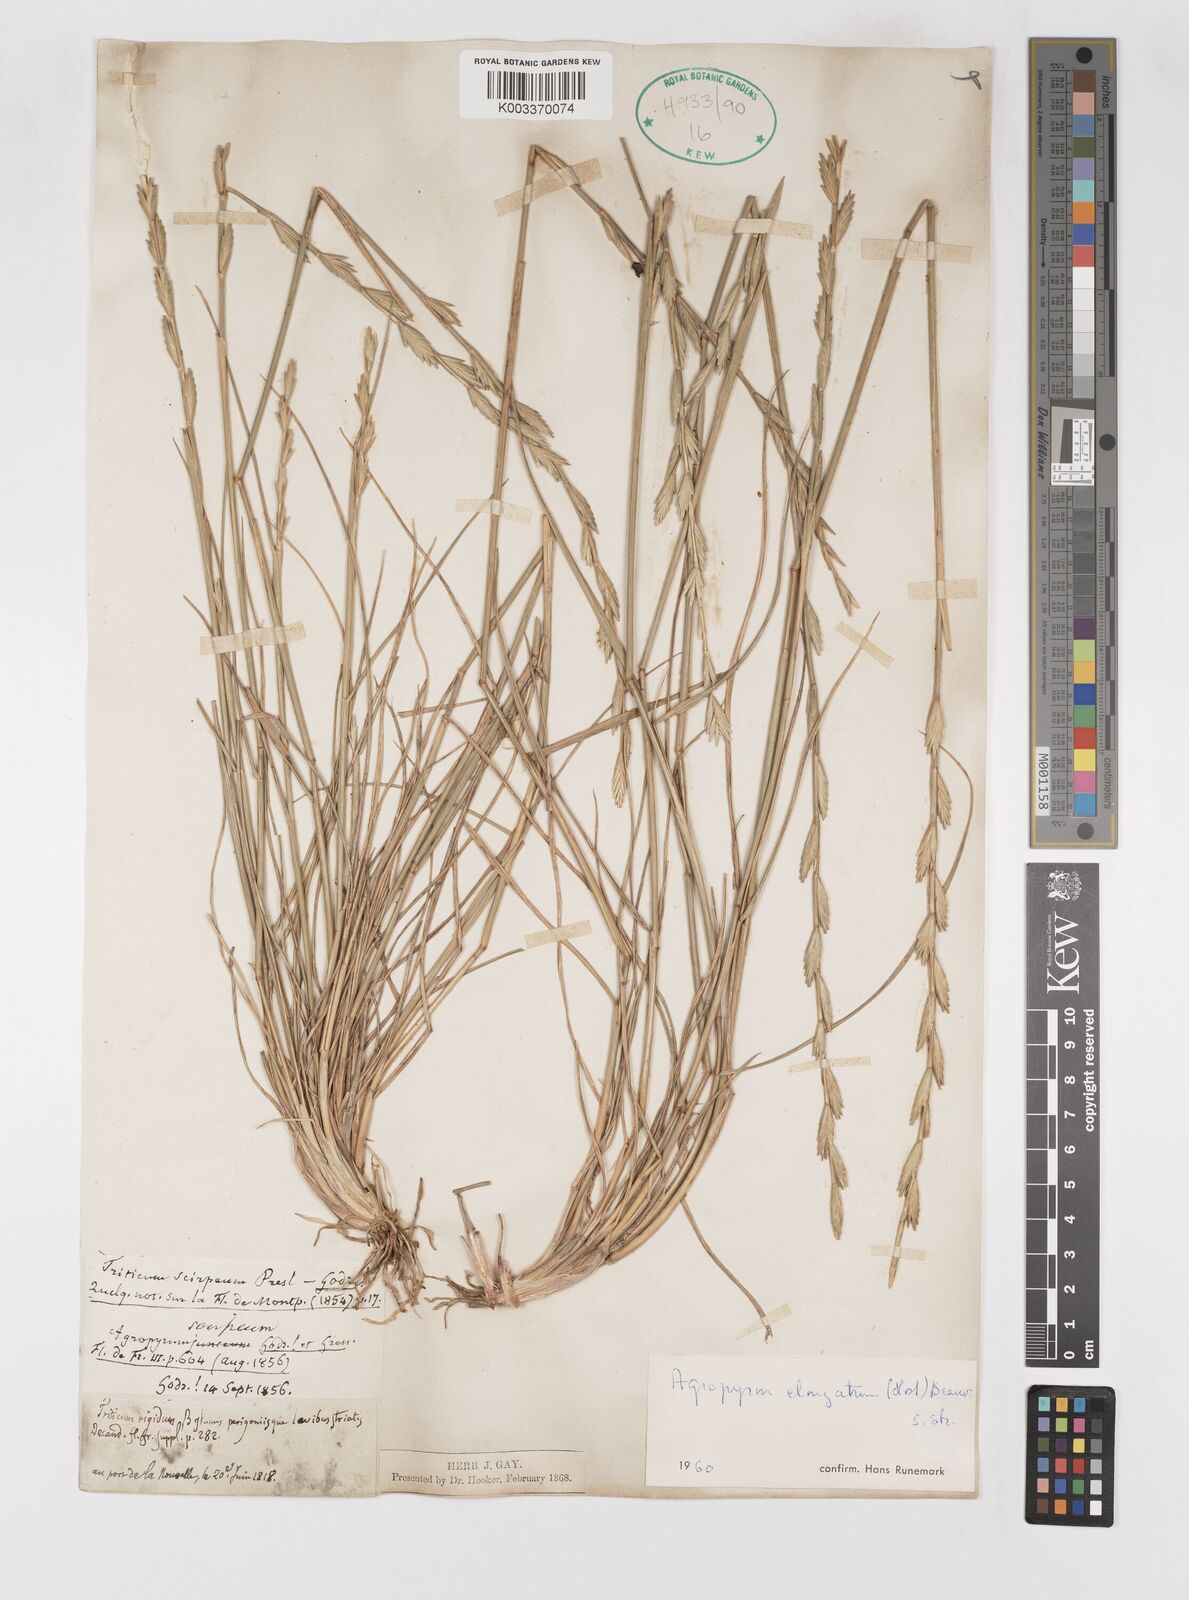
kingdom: Plantae
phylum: Tracheophyta
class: Liliopsida
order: Poales
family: Poaceae
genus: Thinopyrum
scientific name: Thinopyrum elongatum
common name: Tall wheatgrass
